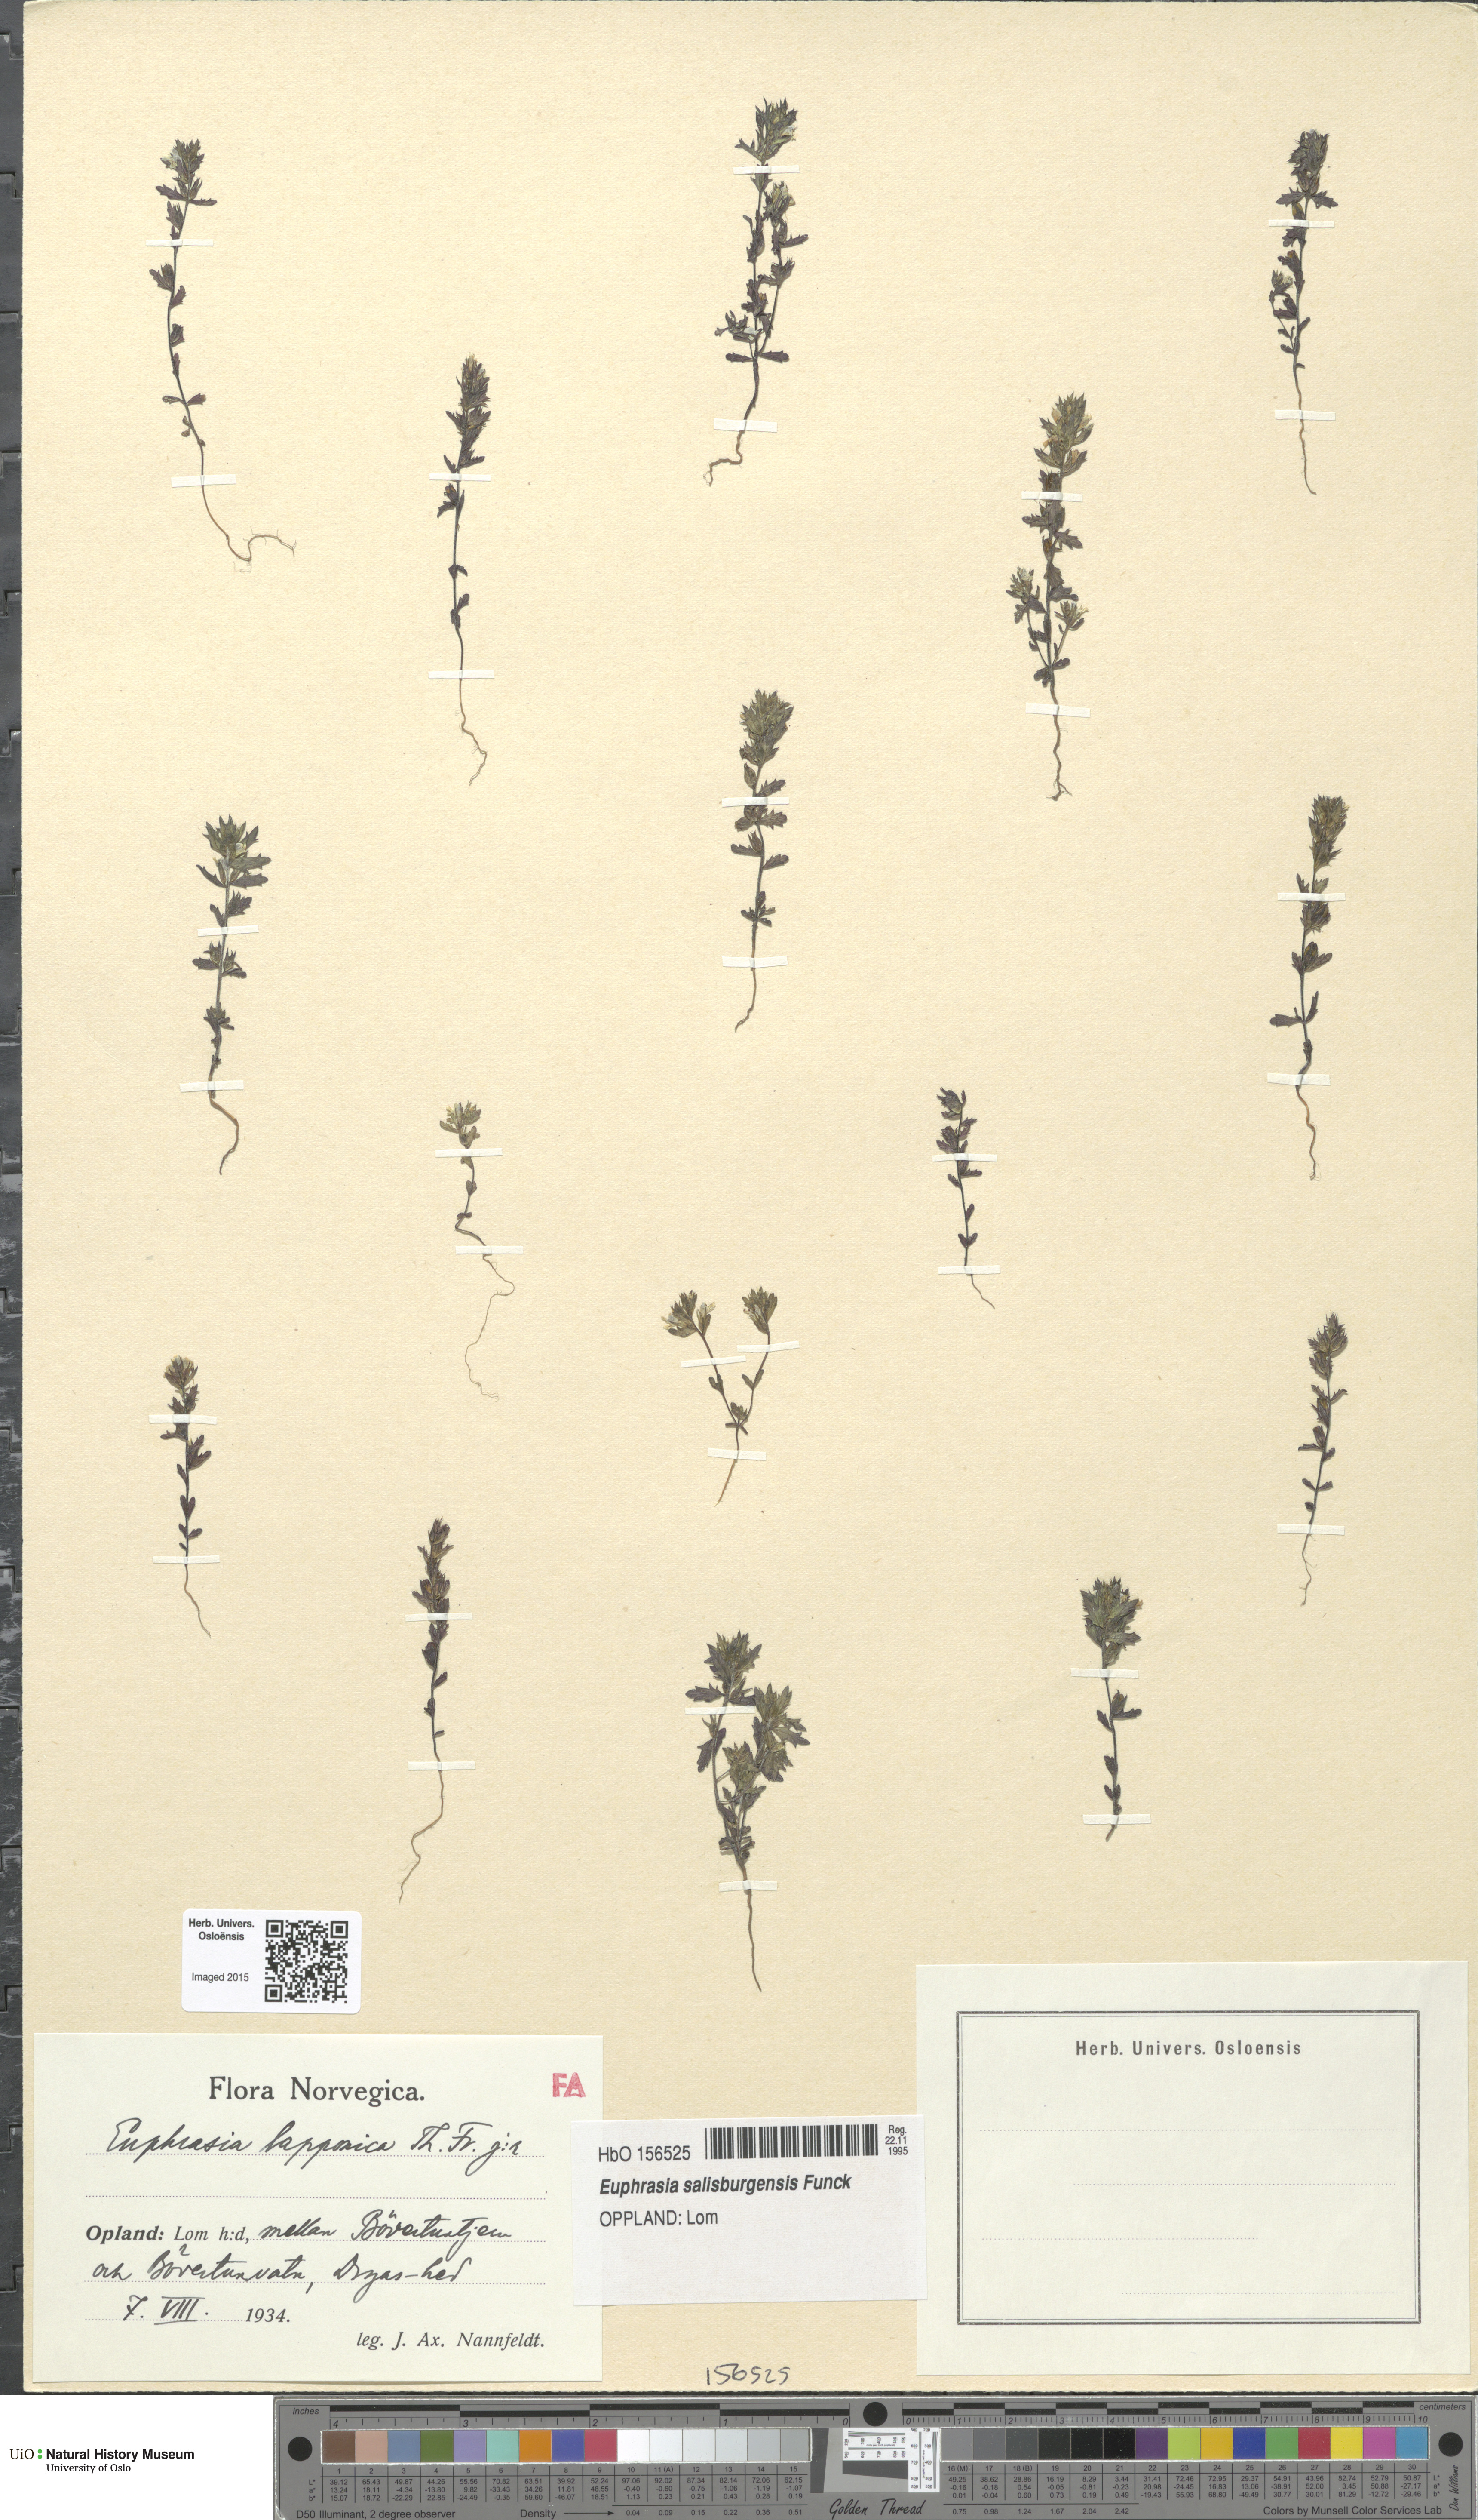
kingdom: Plantae
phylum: Tracheophyta
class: Magnoliopsida
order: Lamiales
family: Orobanchaceae
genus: Euphrasia
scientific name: Euphrasia salisburgensis
